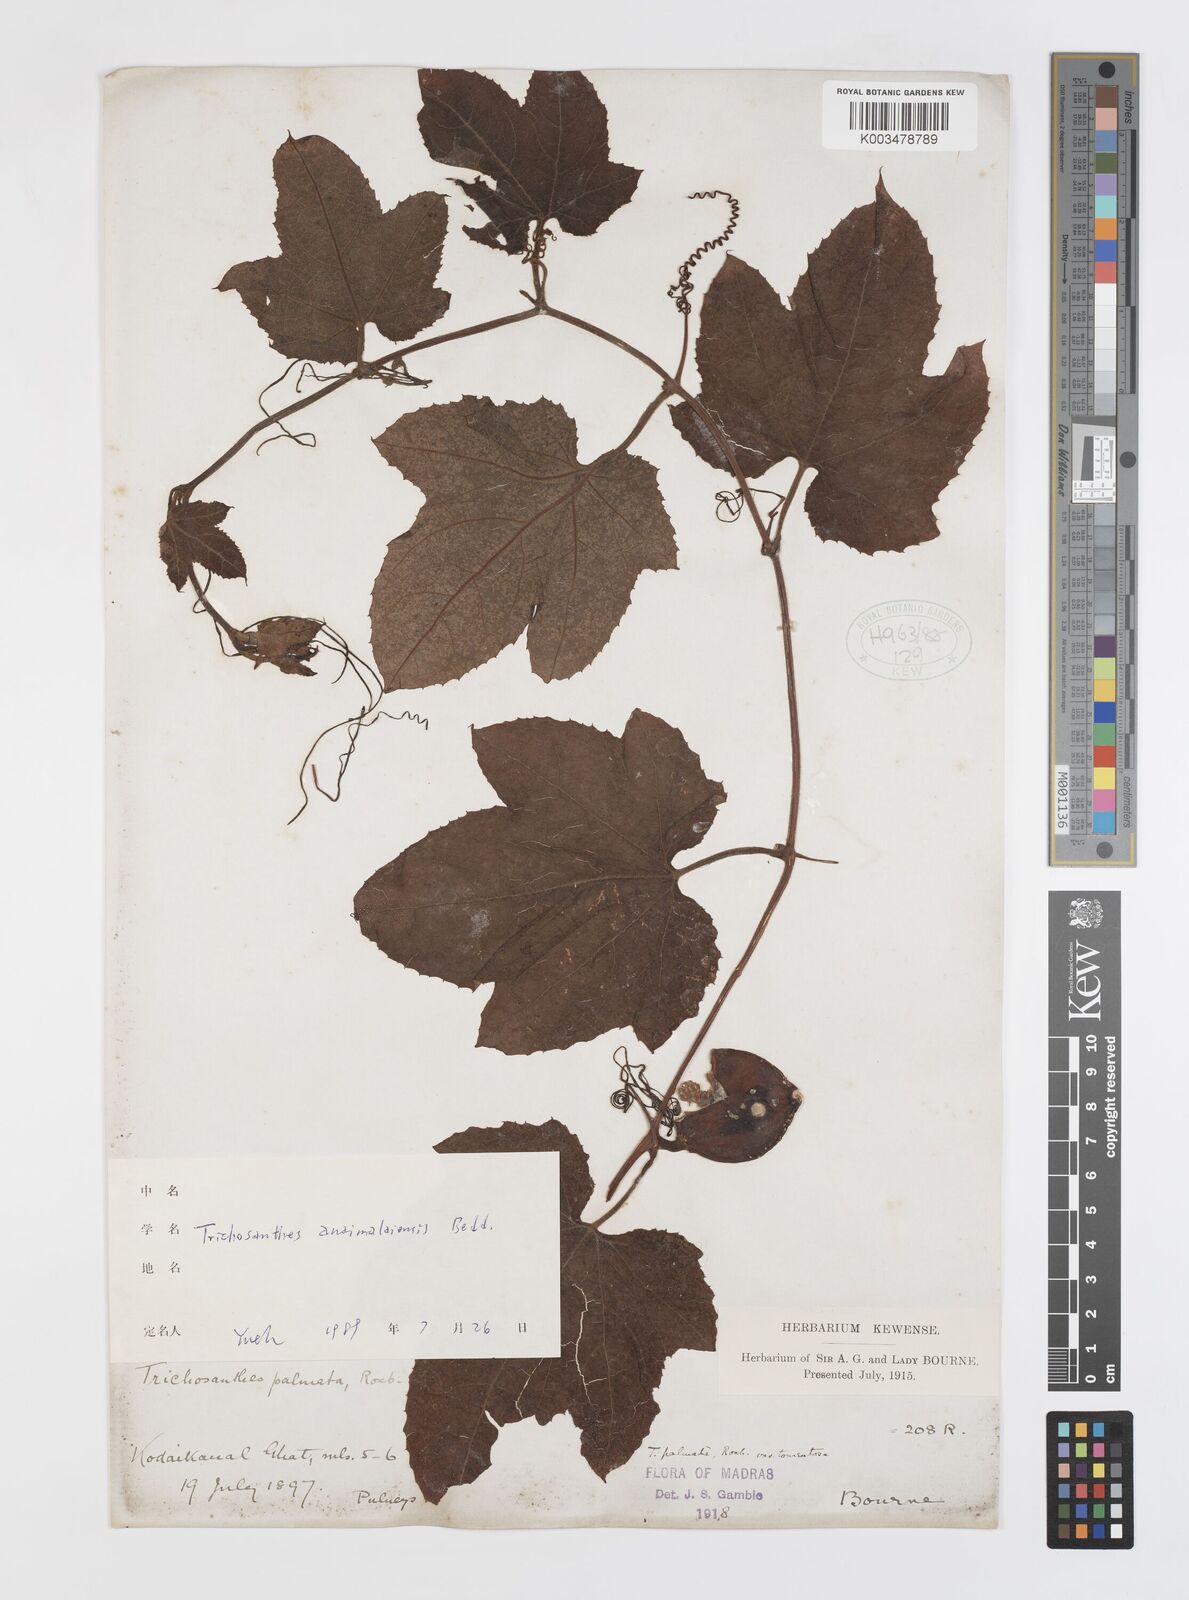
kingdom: Plantae
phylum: Tracheophyta
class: Magnoliopsida
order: Cucurbitales
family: Cucurbitaceae
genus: Trichosanthes
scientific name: Trichosanthes anaimalaiensis
